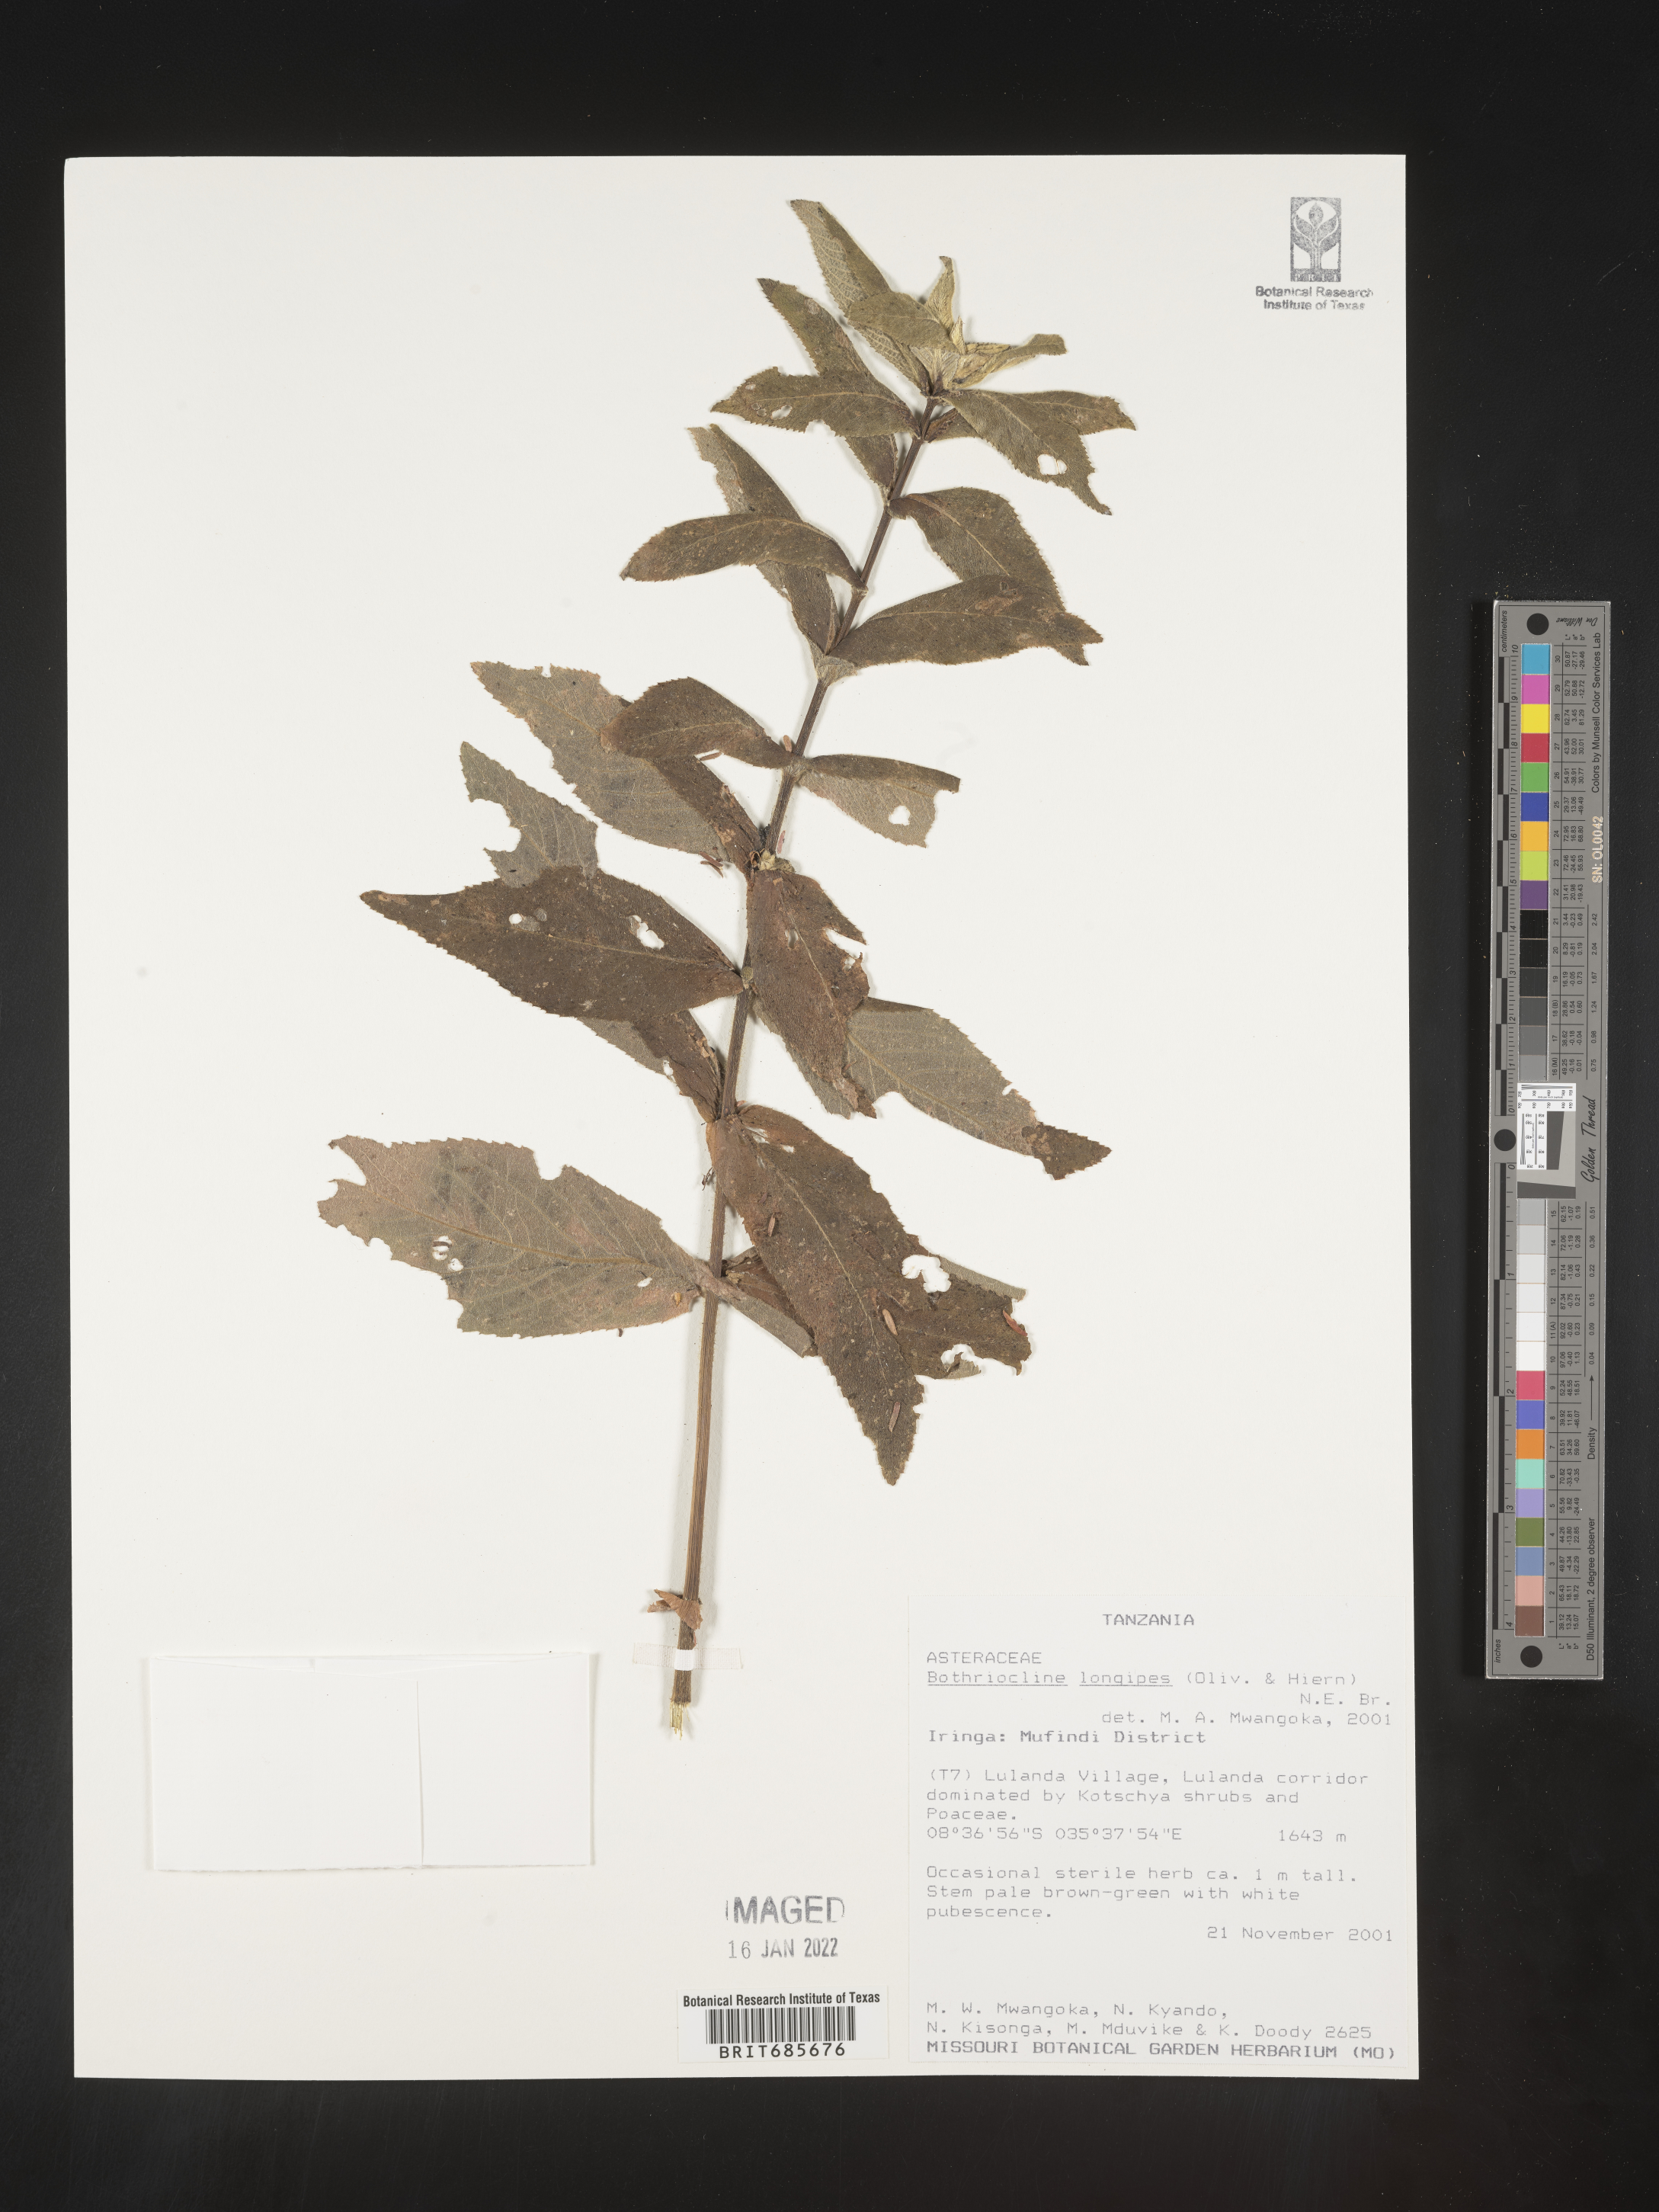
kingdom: Plantae
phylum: Tracheophyta
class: Magnoliopsida
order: Asterales
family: Asteraceae
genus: Bothriocline
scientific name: Bothriocline
